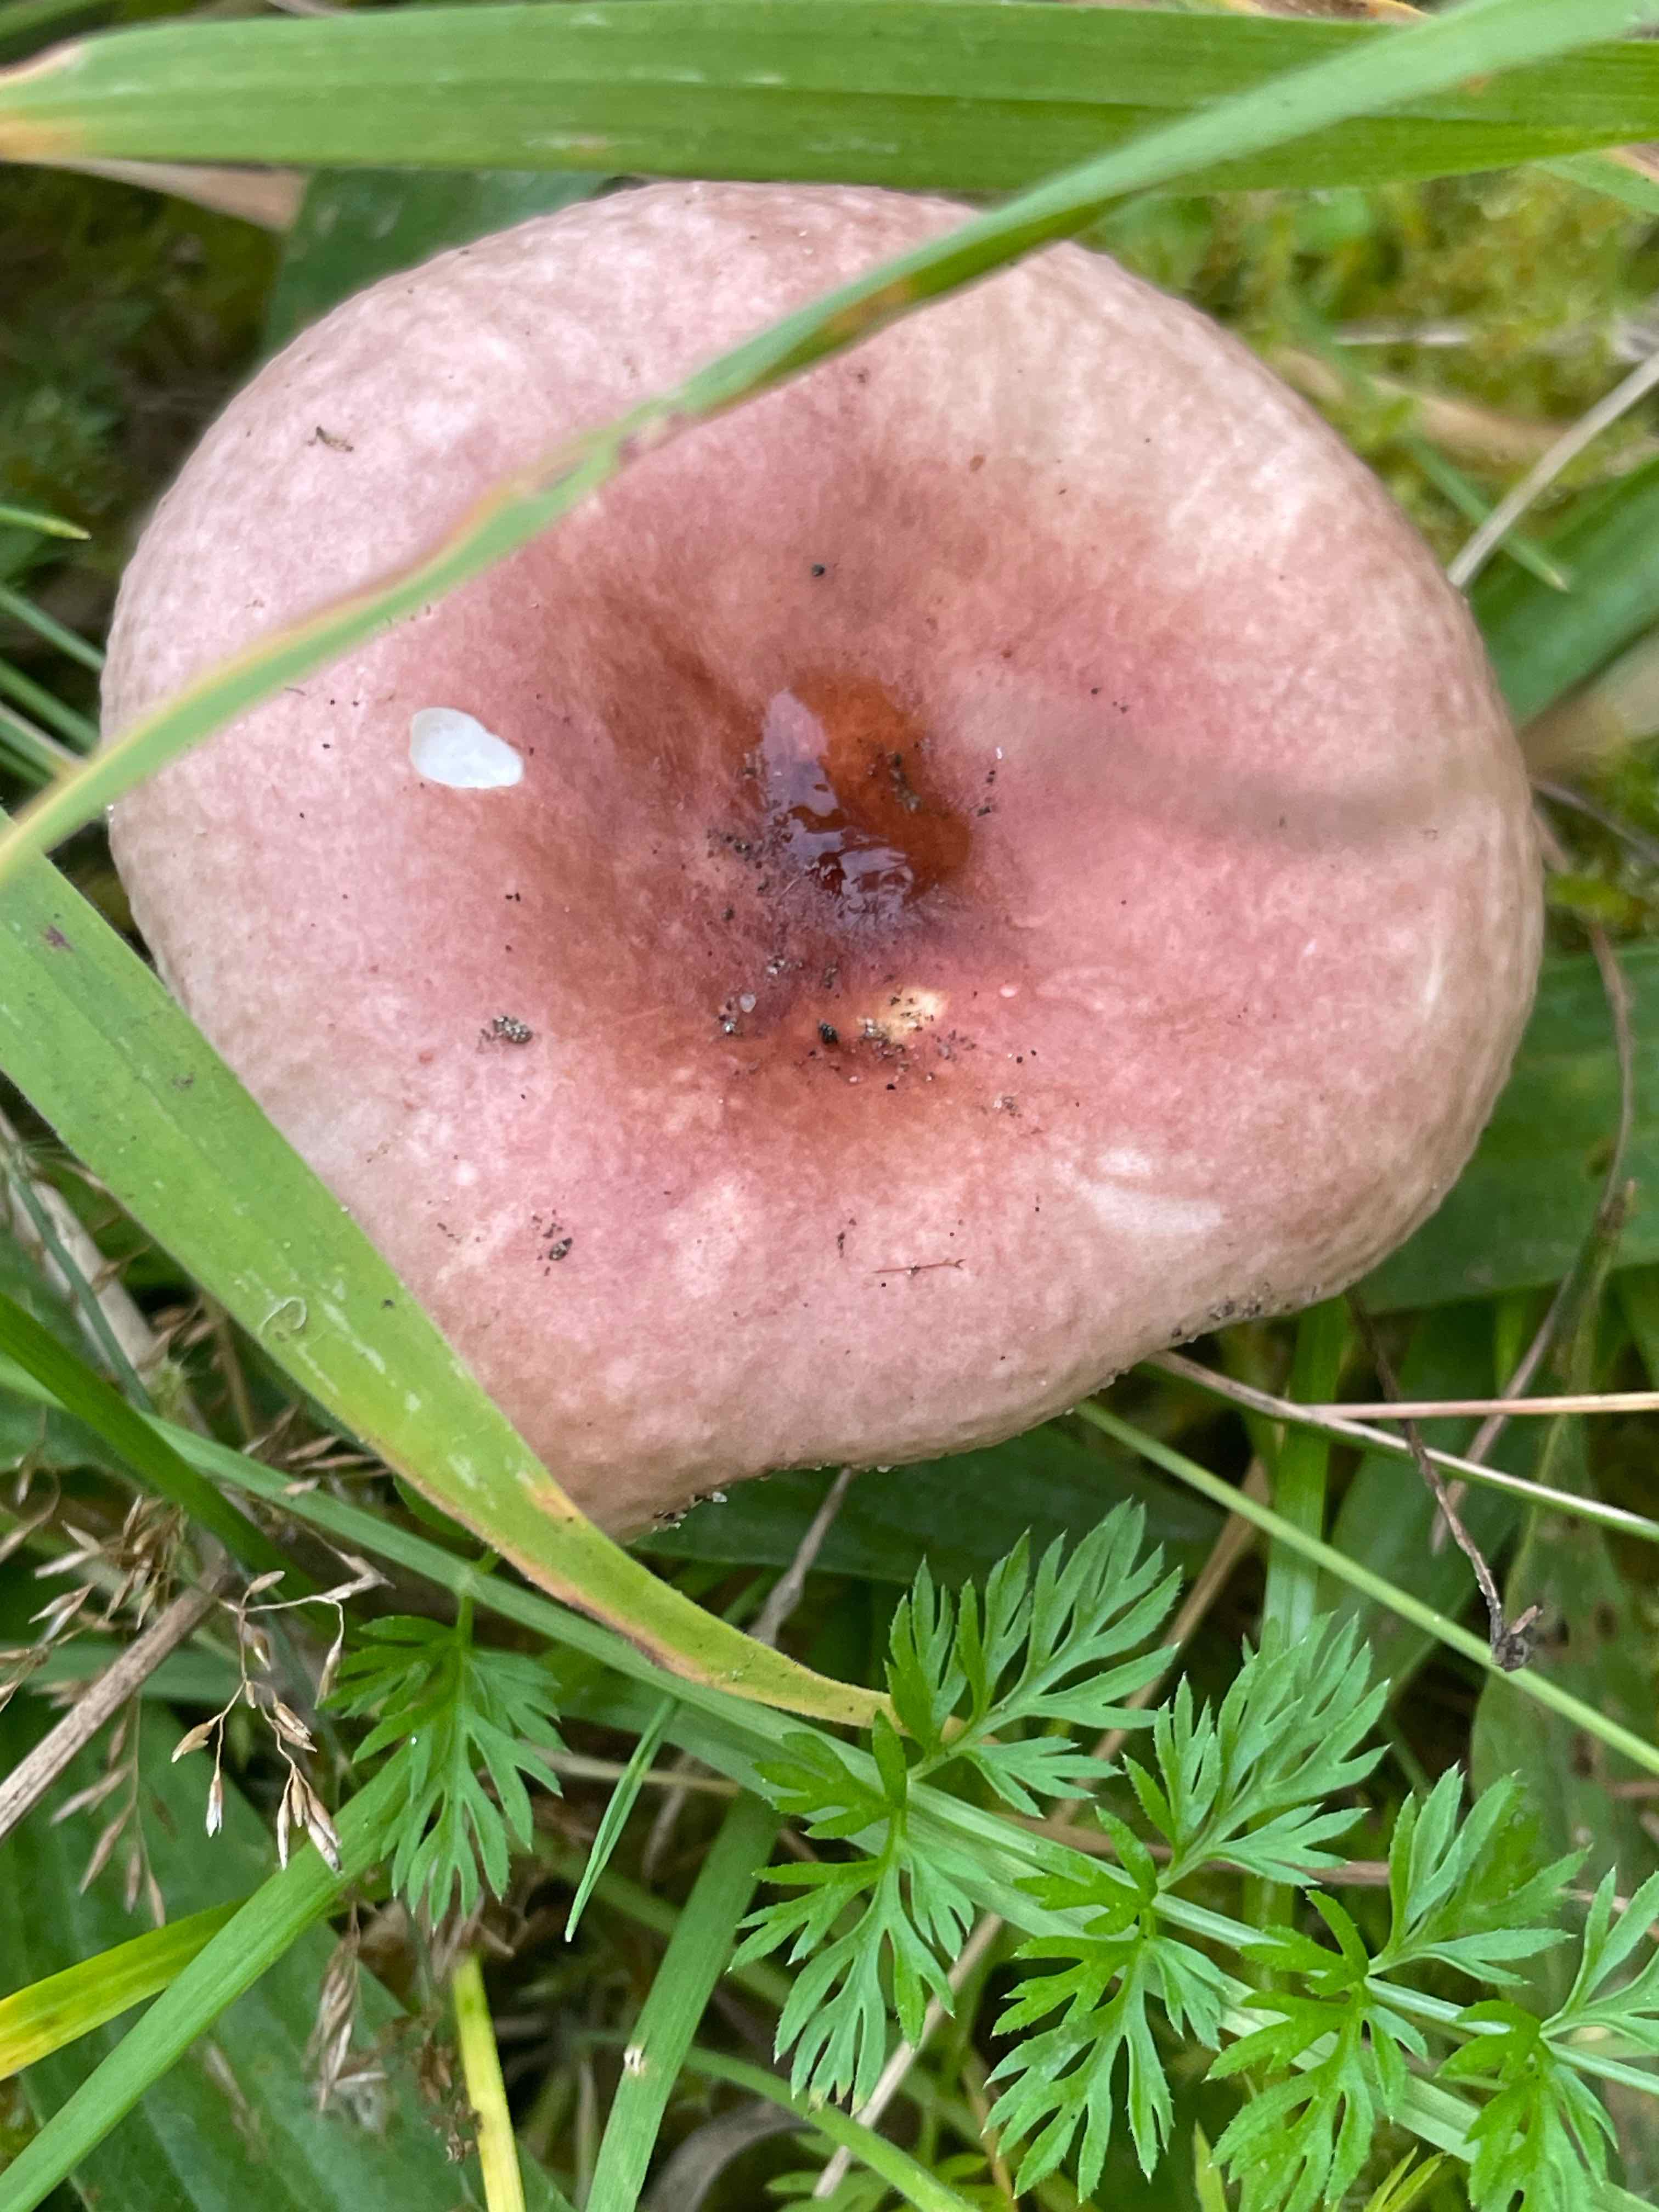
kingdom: Fungi
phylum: Basidiomycota
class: Agaricomycetes
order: Russulales
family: Russulaceae
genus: Russula
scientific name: Russula cessans
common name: fyrre-skørhat
